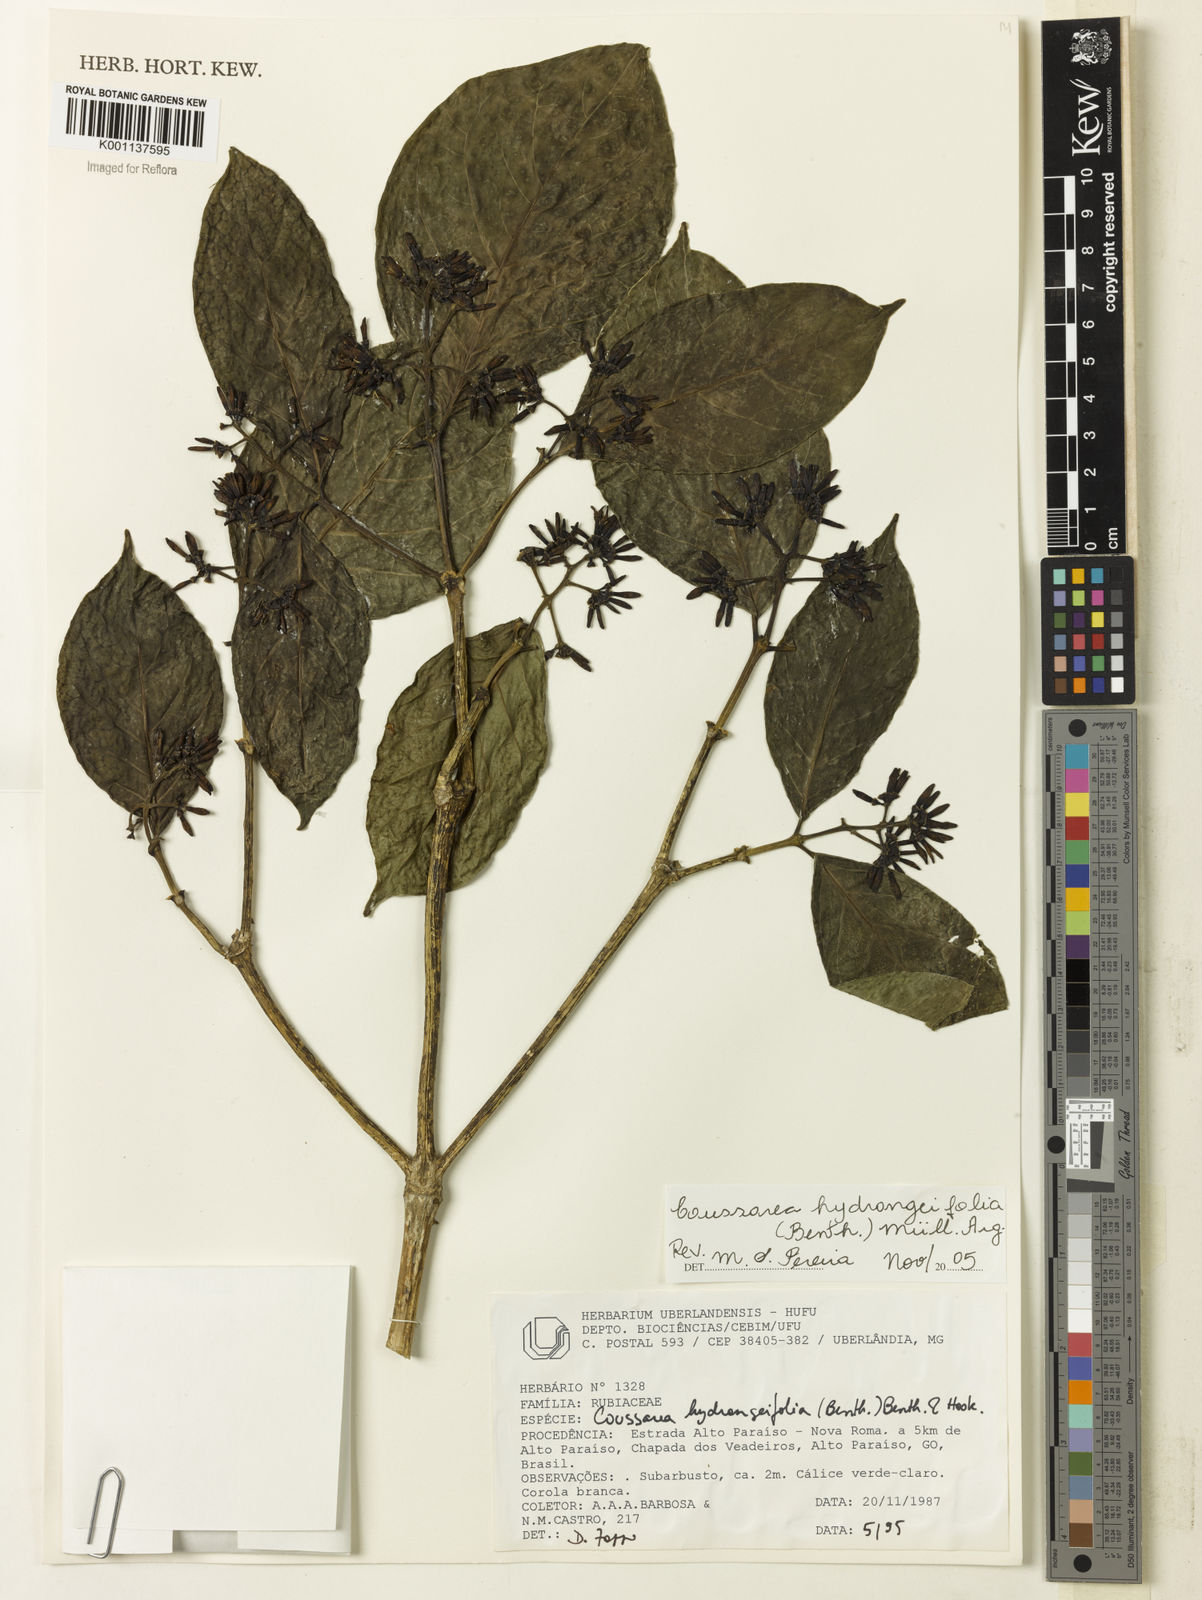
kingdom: Plantae
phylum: Tracheophyta
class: Magnoliopsida
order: Gentianales
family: Rubiaceae
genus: Coussarea
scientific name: Coussarea
